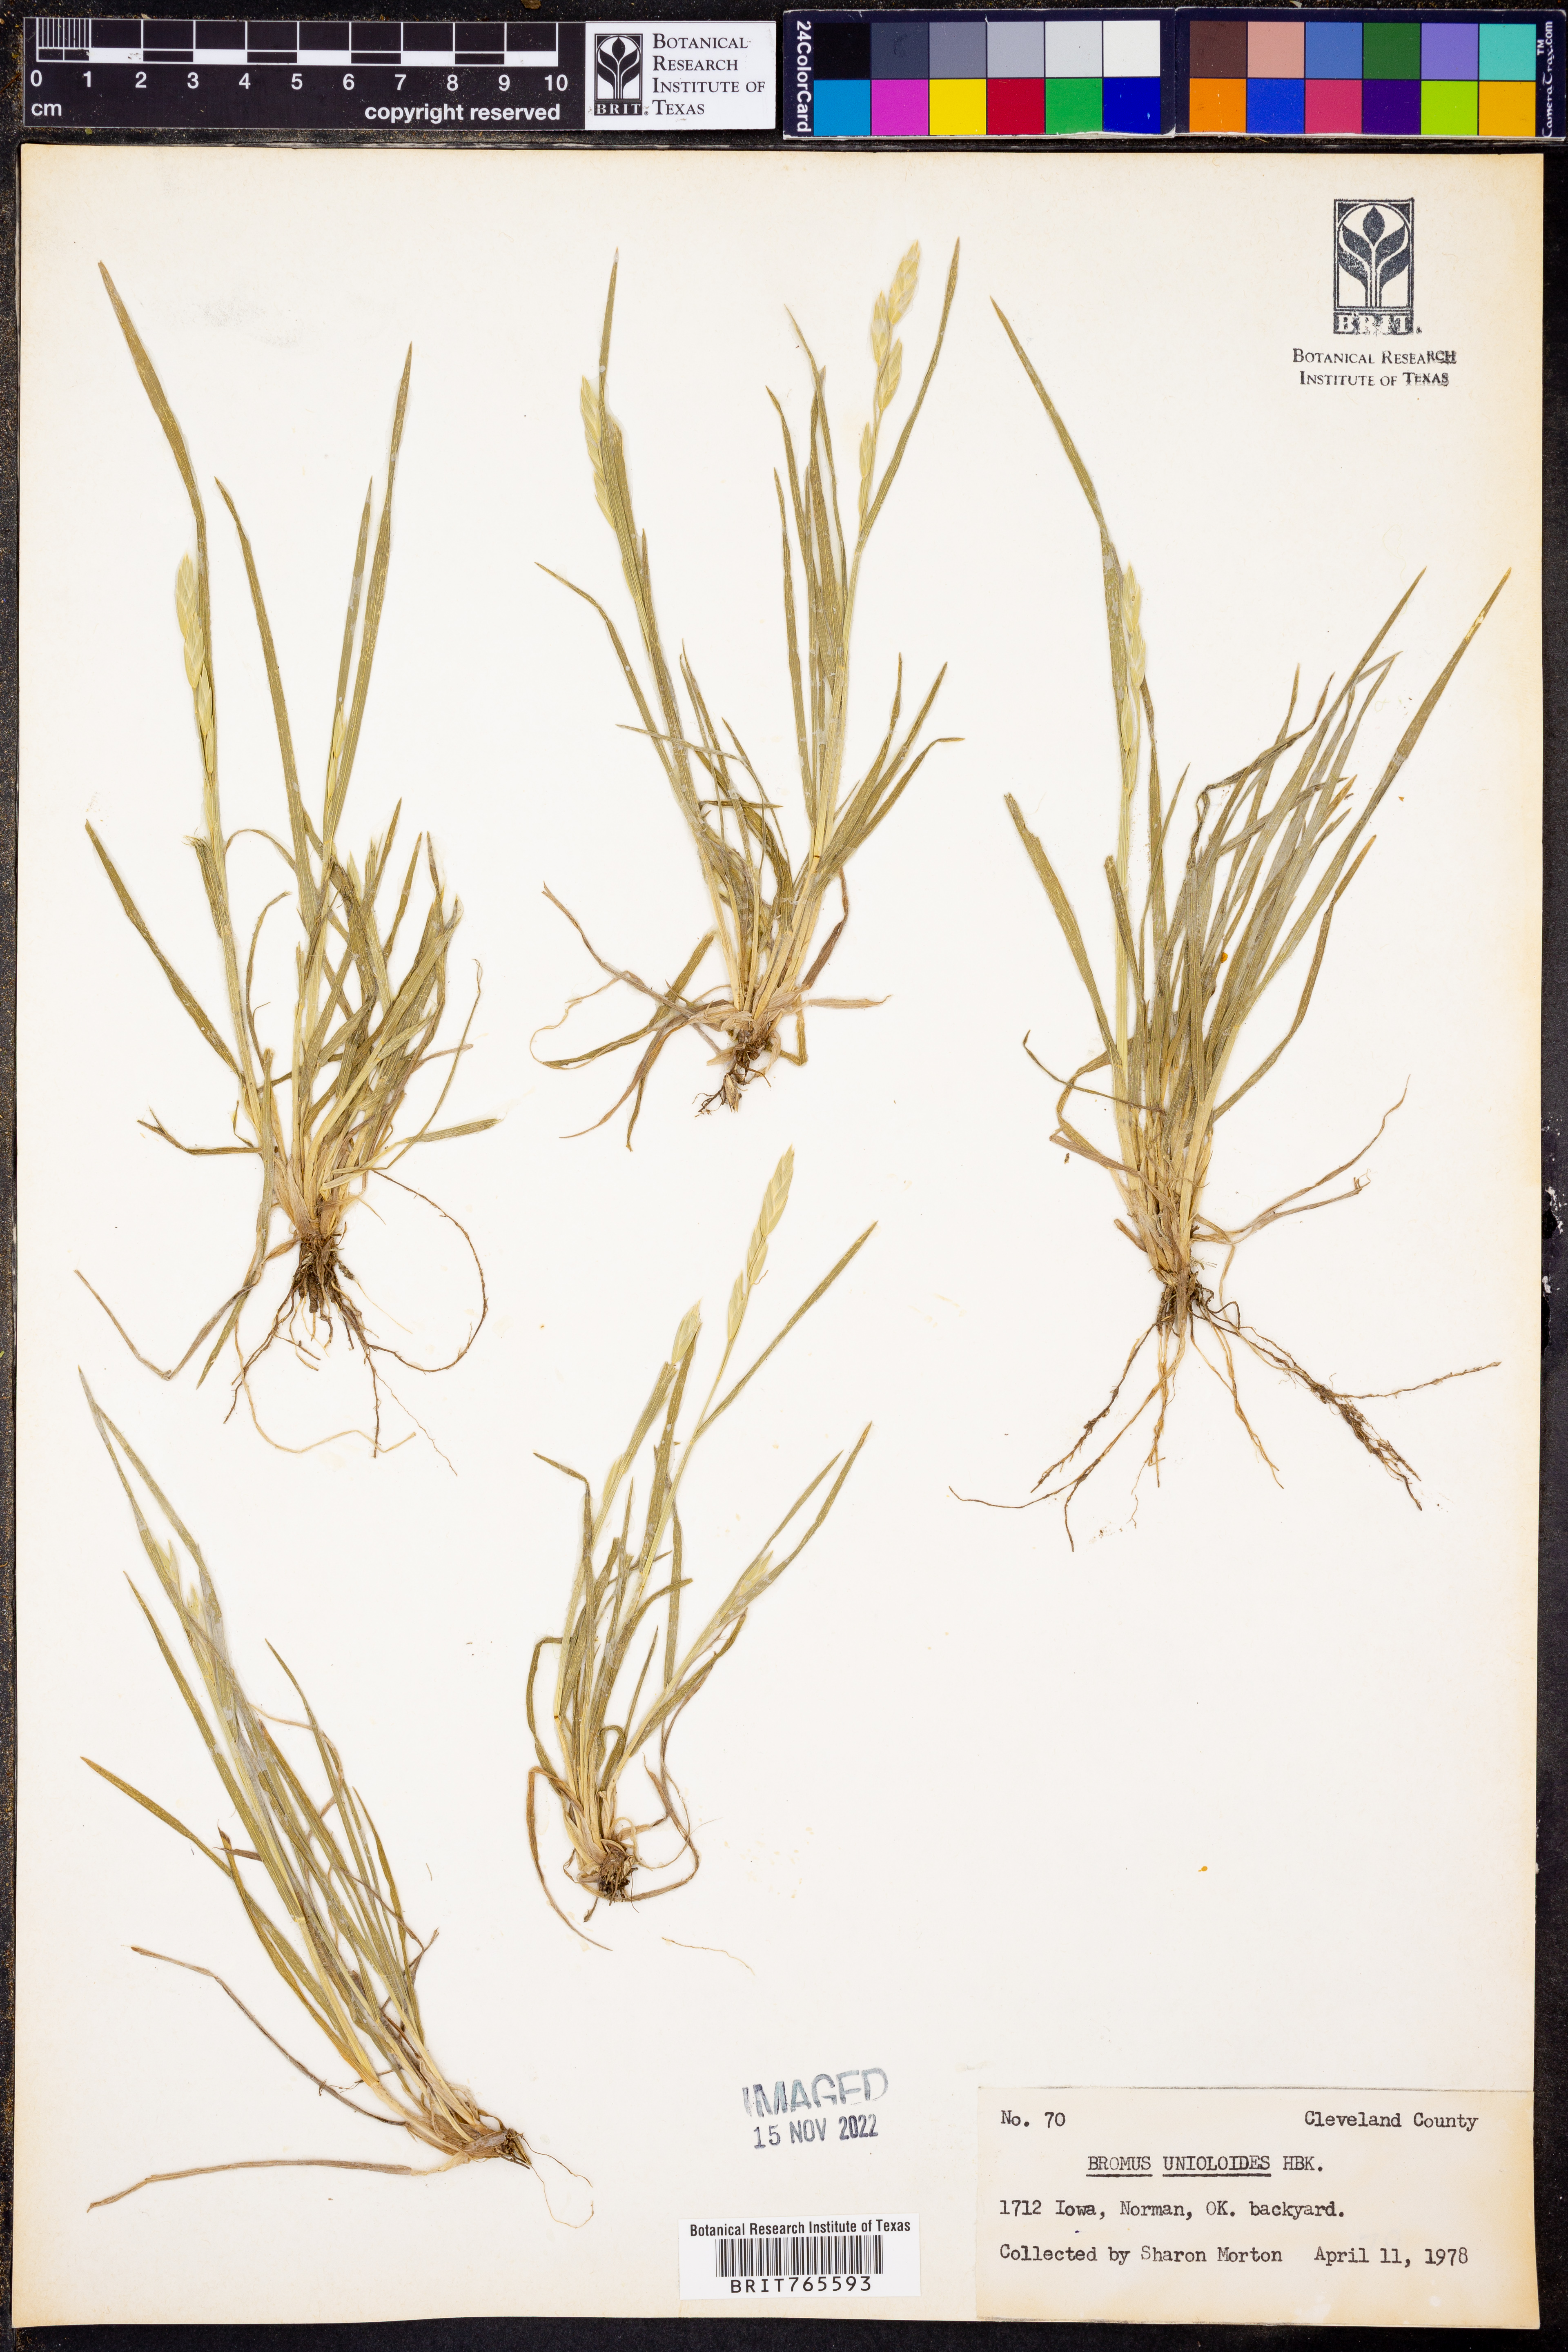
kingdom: Plantae
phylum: Tracheophyta
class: Liliopsida
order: Poales
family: Poaceae
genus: Bromus
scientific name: Bromus catharticus
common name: Rescuegrass
